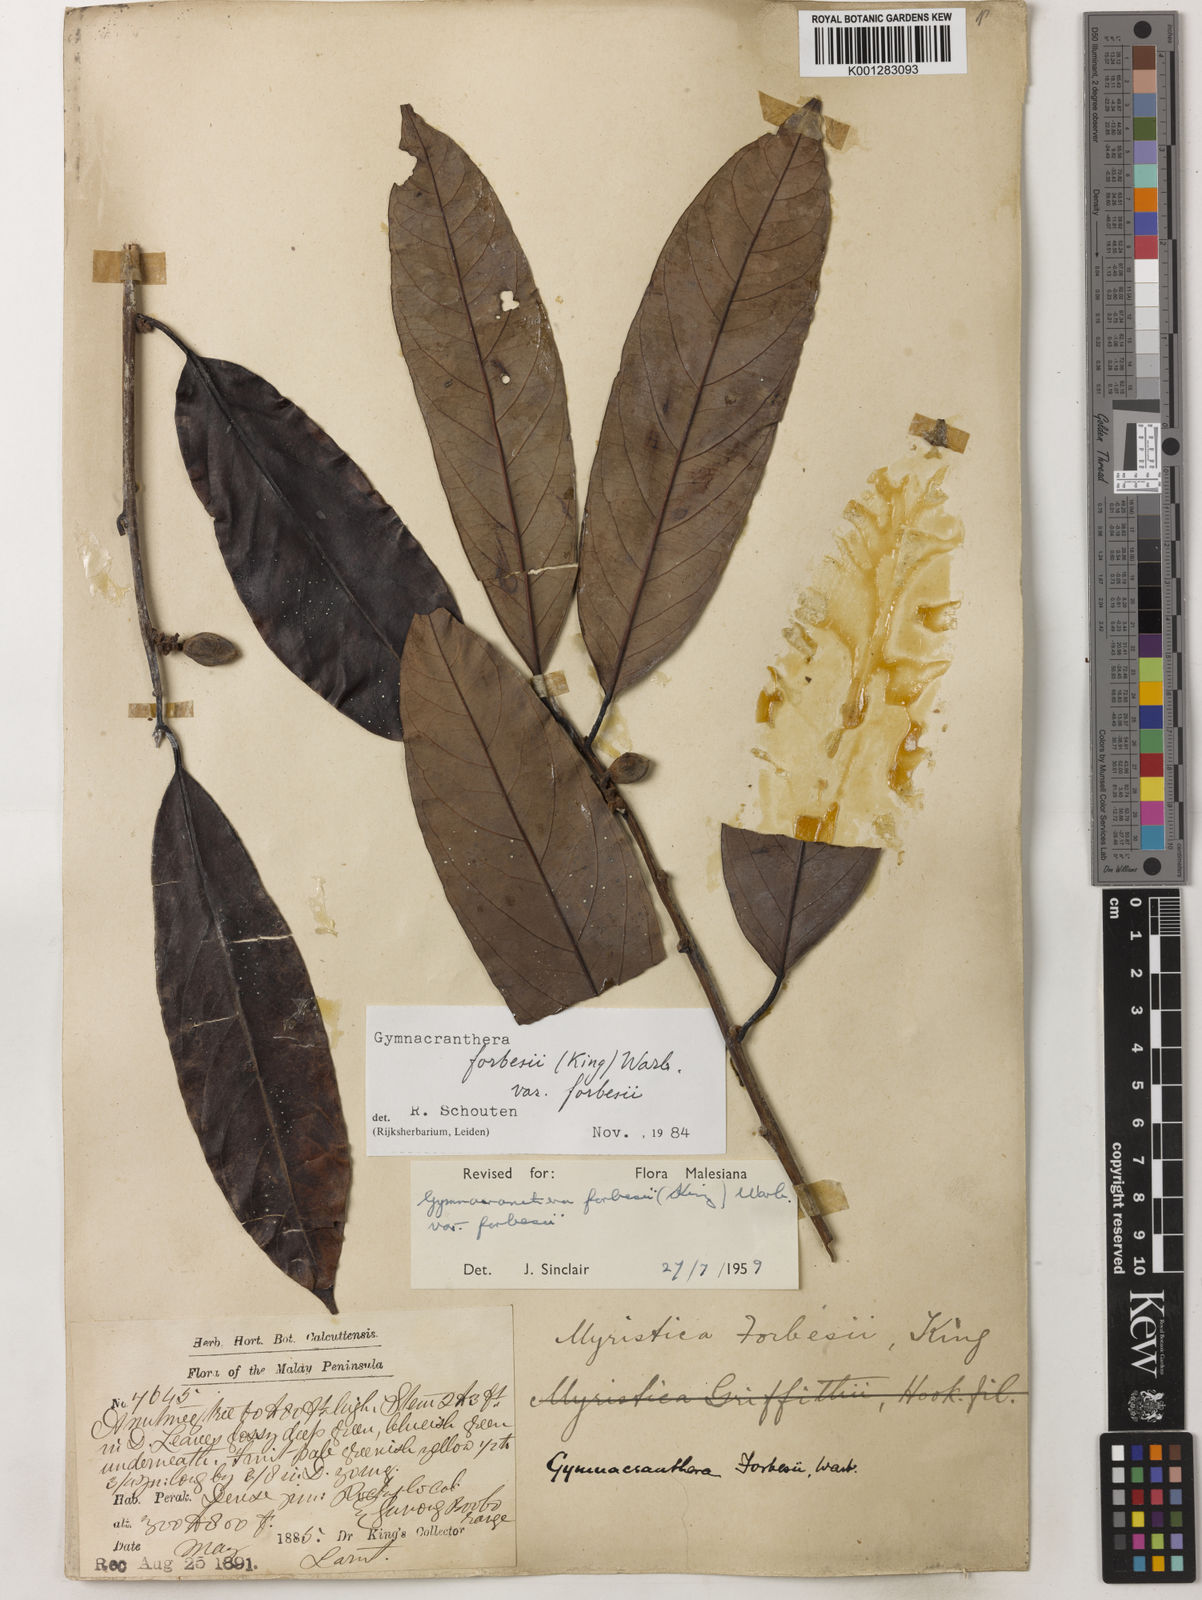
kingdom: Plantae
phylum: Tracheophyta
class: Magnoliopsida
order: Magnoliales
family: Myristicaceae
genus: Gymnacranthera
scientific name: Gymnacranthera forbesii
